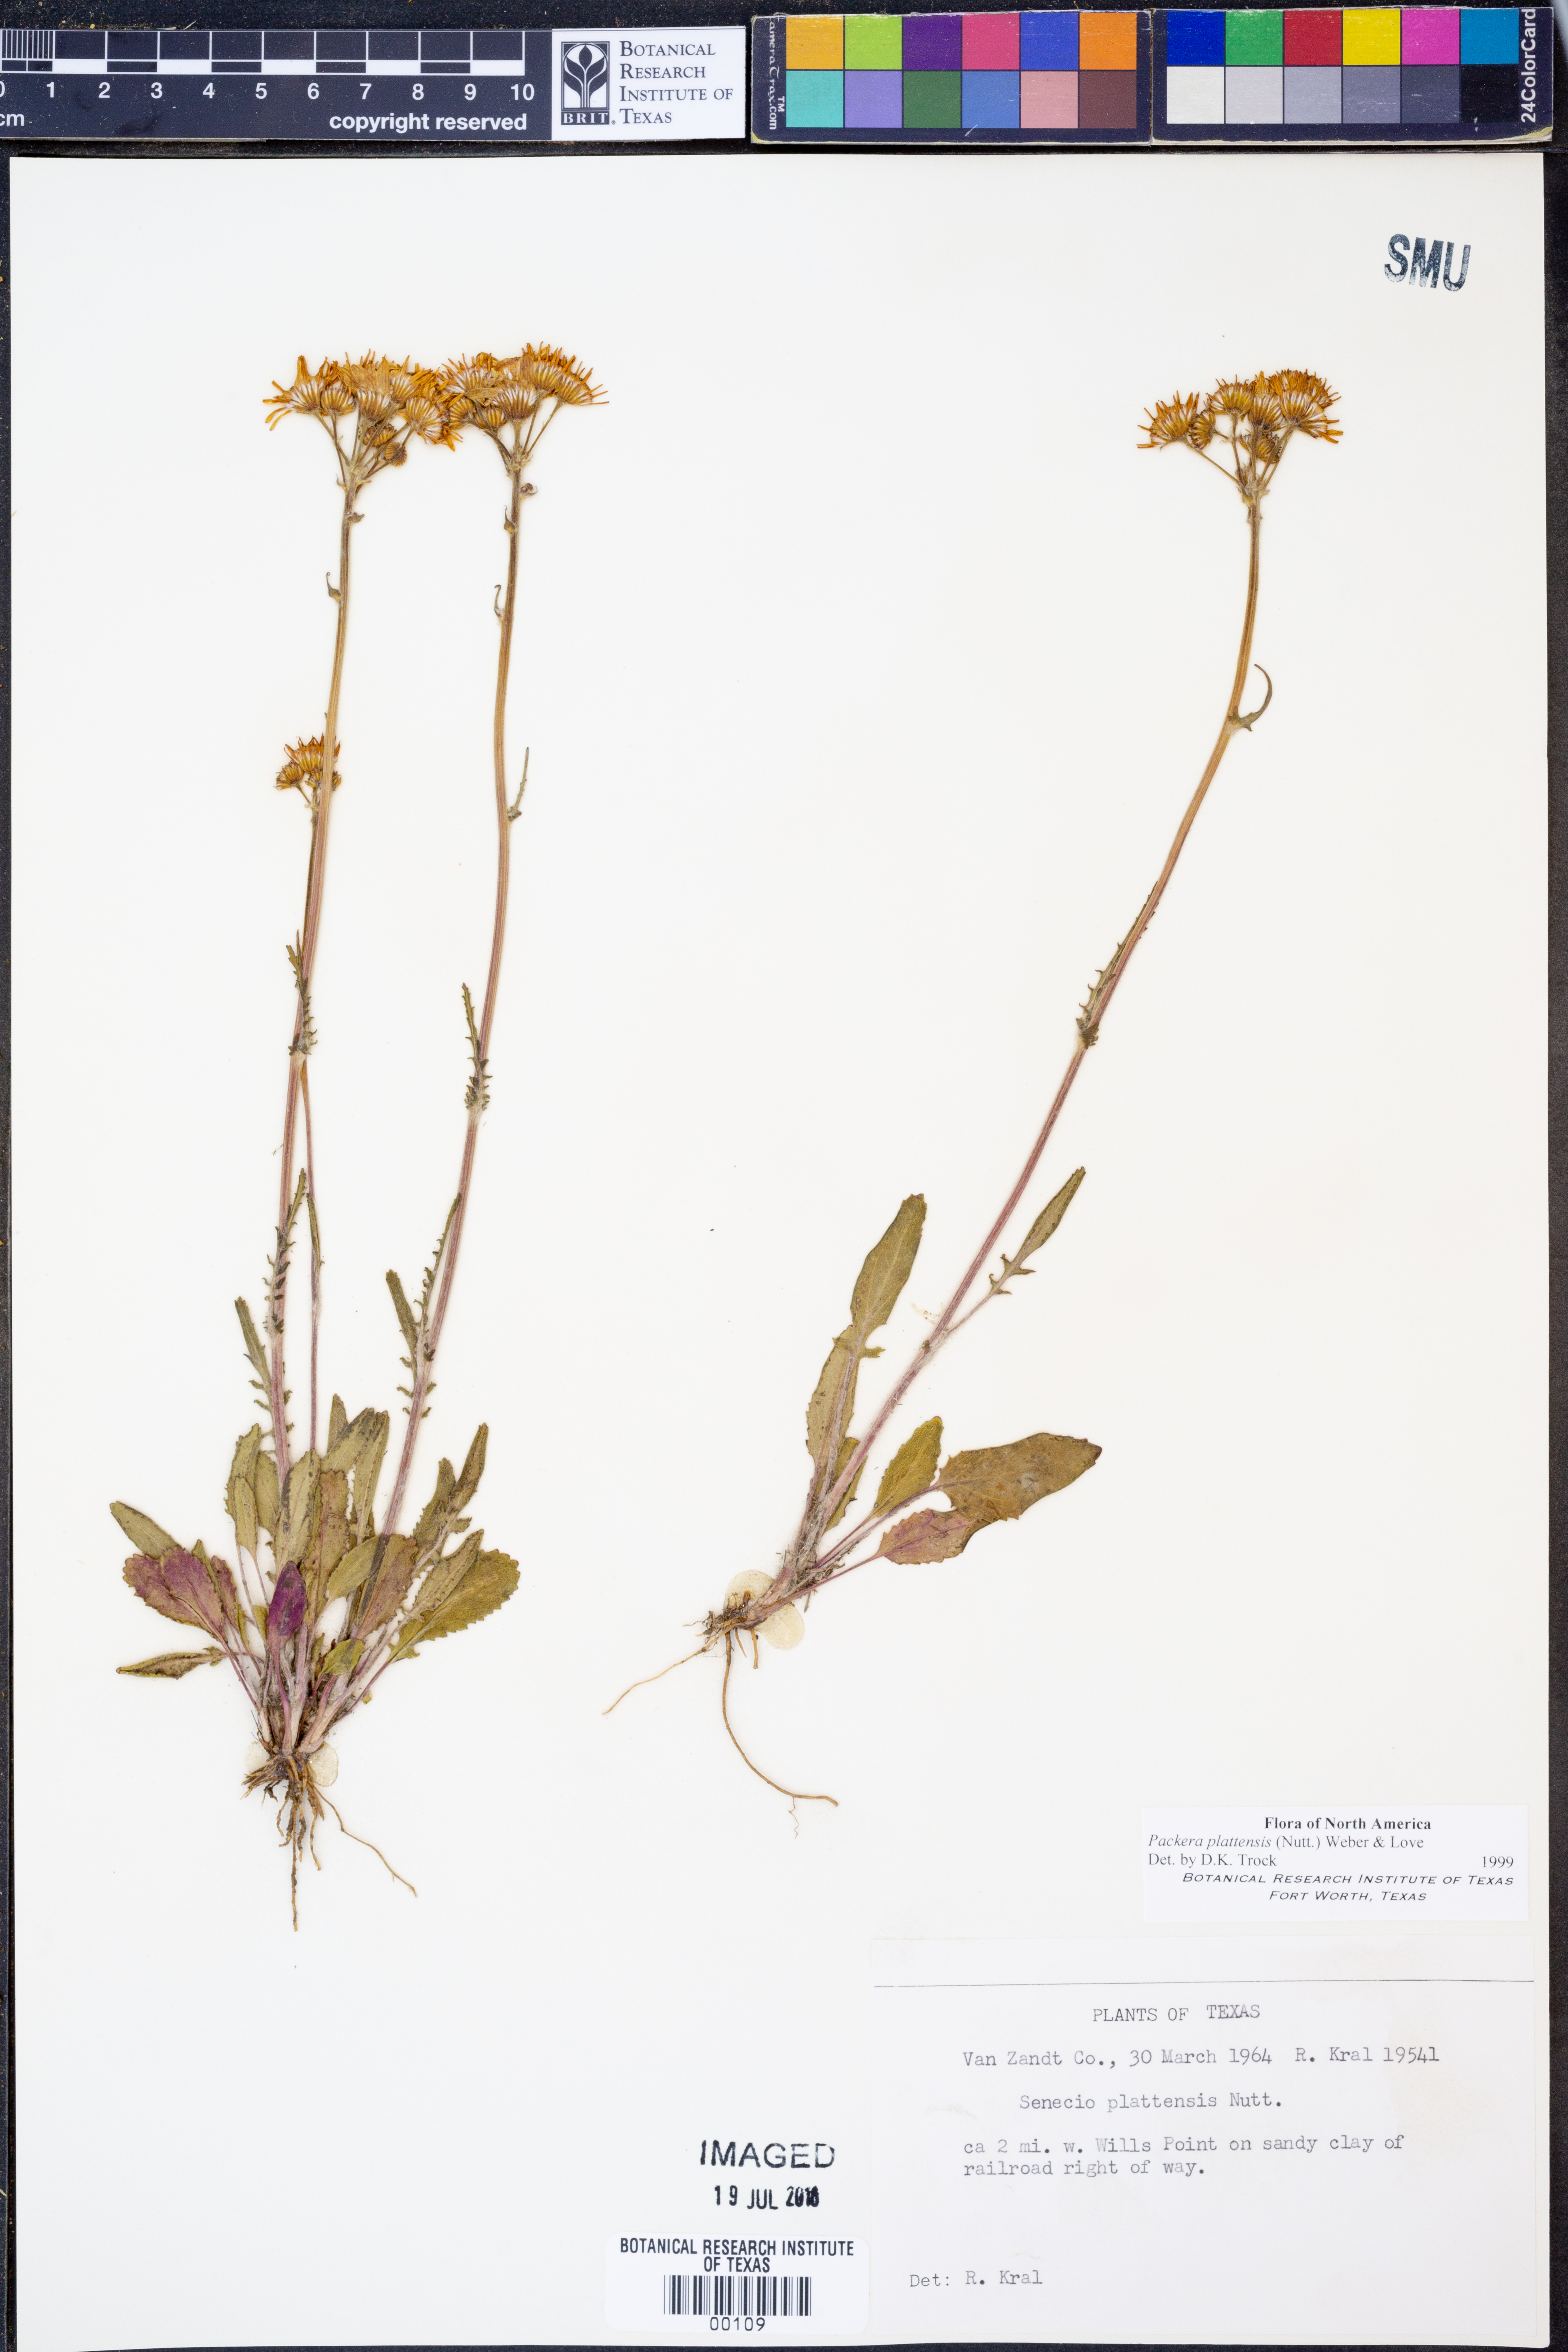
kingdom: Plantae
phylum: Tracheophyta
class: Magnoliopsida
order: Asterales
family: Asteraceae
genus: Packera
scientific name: Packera plattensis
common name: Prairie groundsel
